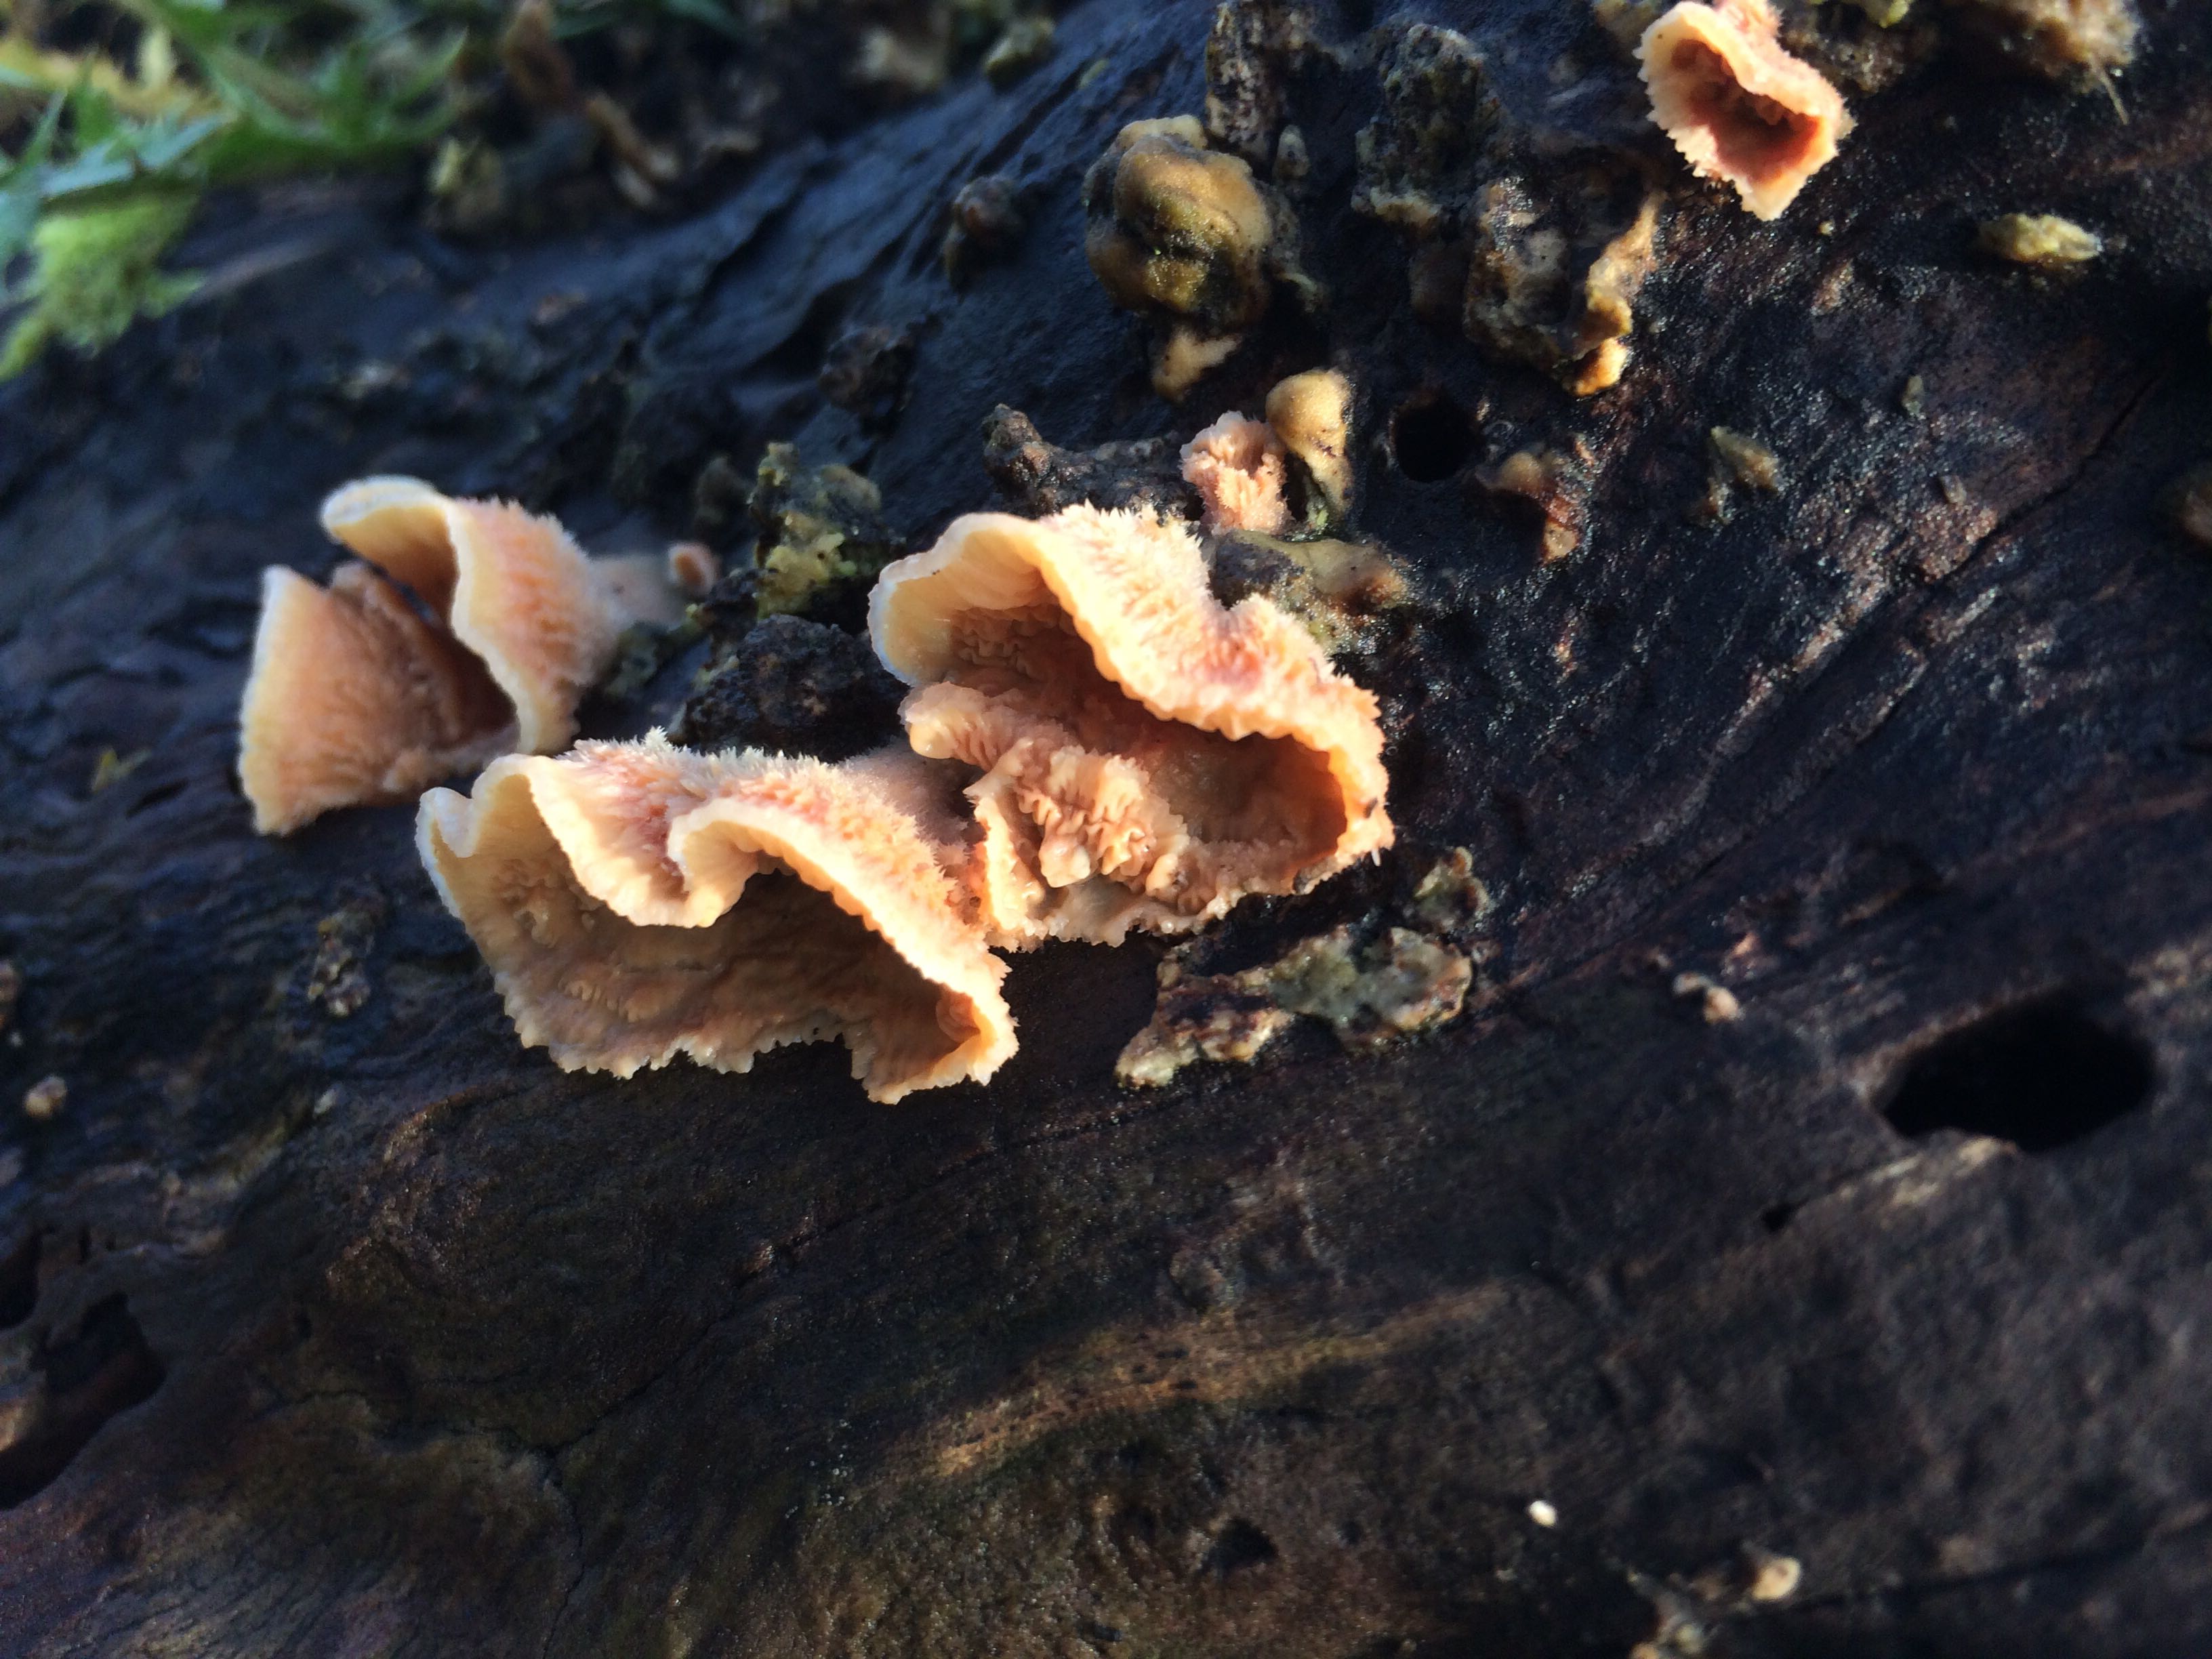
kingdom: Fungi
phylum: Basidiomycota
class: Agaricomycetes
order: Polyporales
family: Meruliaceae
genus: Phlebia
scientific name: Phlebia tremellosa
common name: bævrende åresvamp
